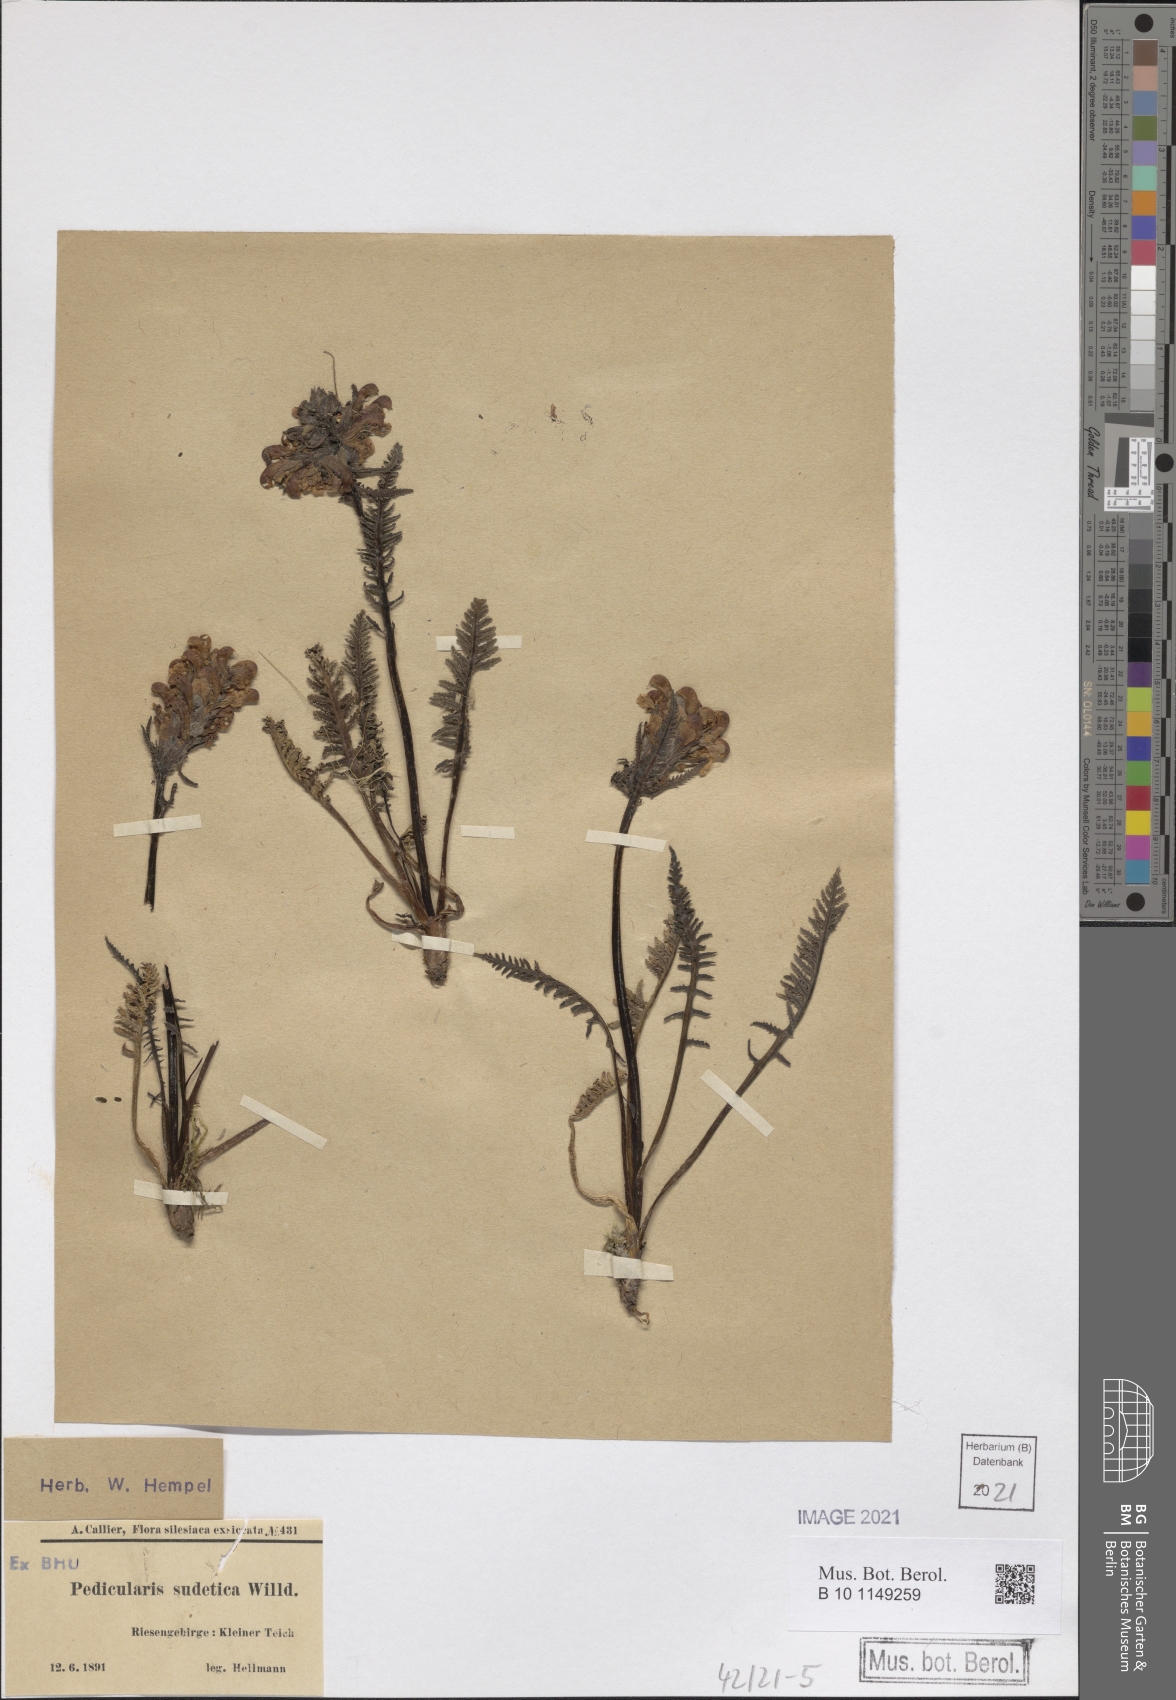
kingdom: Plantae
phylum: Tracheophyta
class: Magnoliopsida
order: Lamiales
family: Orobanchaceae
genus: Pedicularis
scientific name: Pedicularis sudetica
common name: Sudeten lousewort
